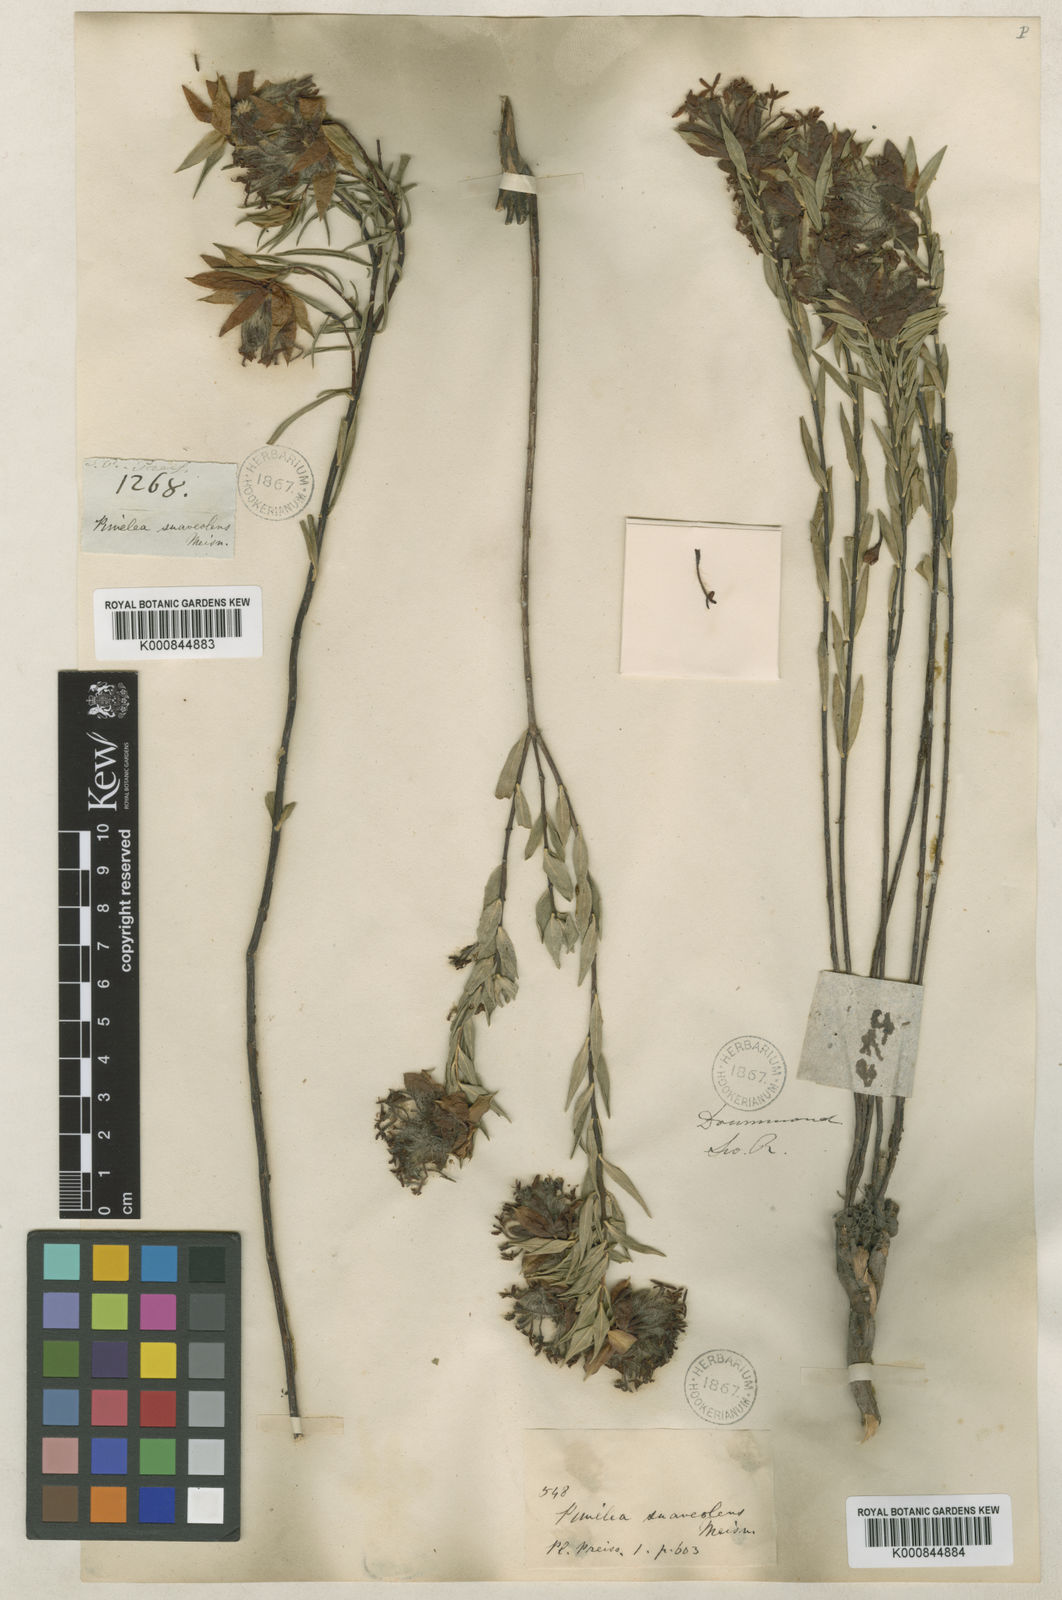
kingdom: Plantae
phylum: Tracheophyta
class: Magnoliopsida
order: Malvales
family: Thymelaeaceae
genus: Pimelea
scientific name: Pimelea suaveolens
